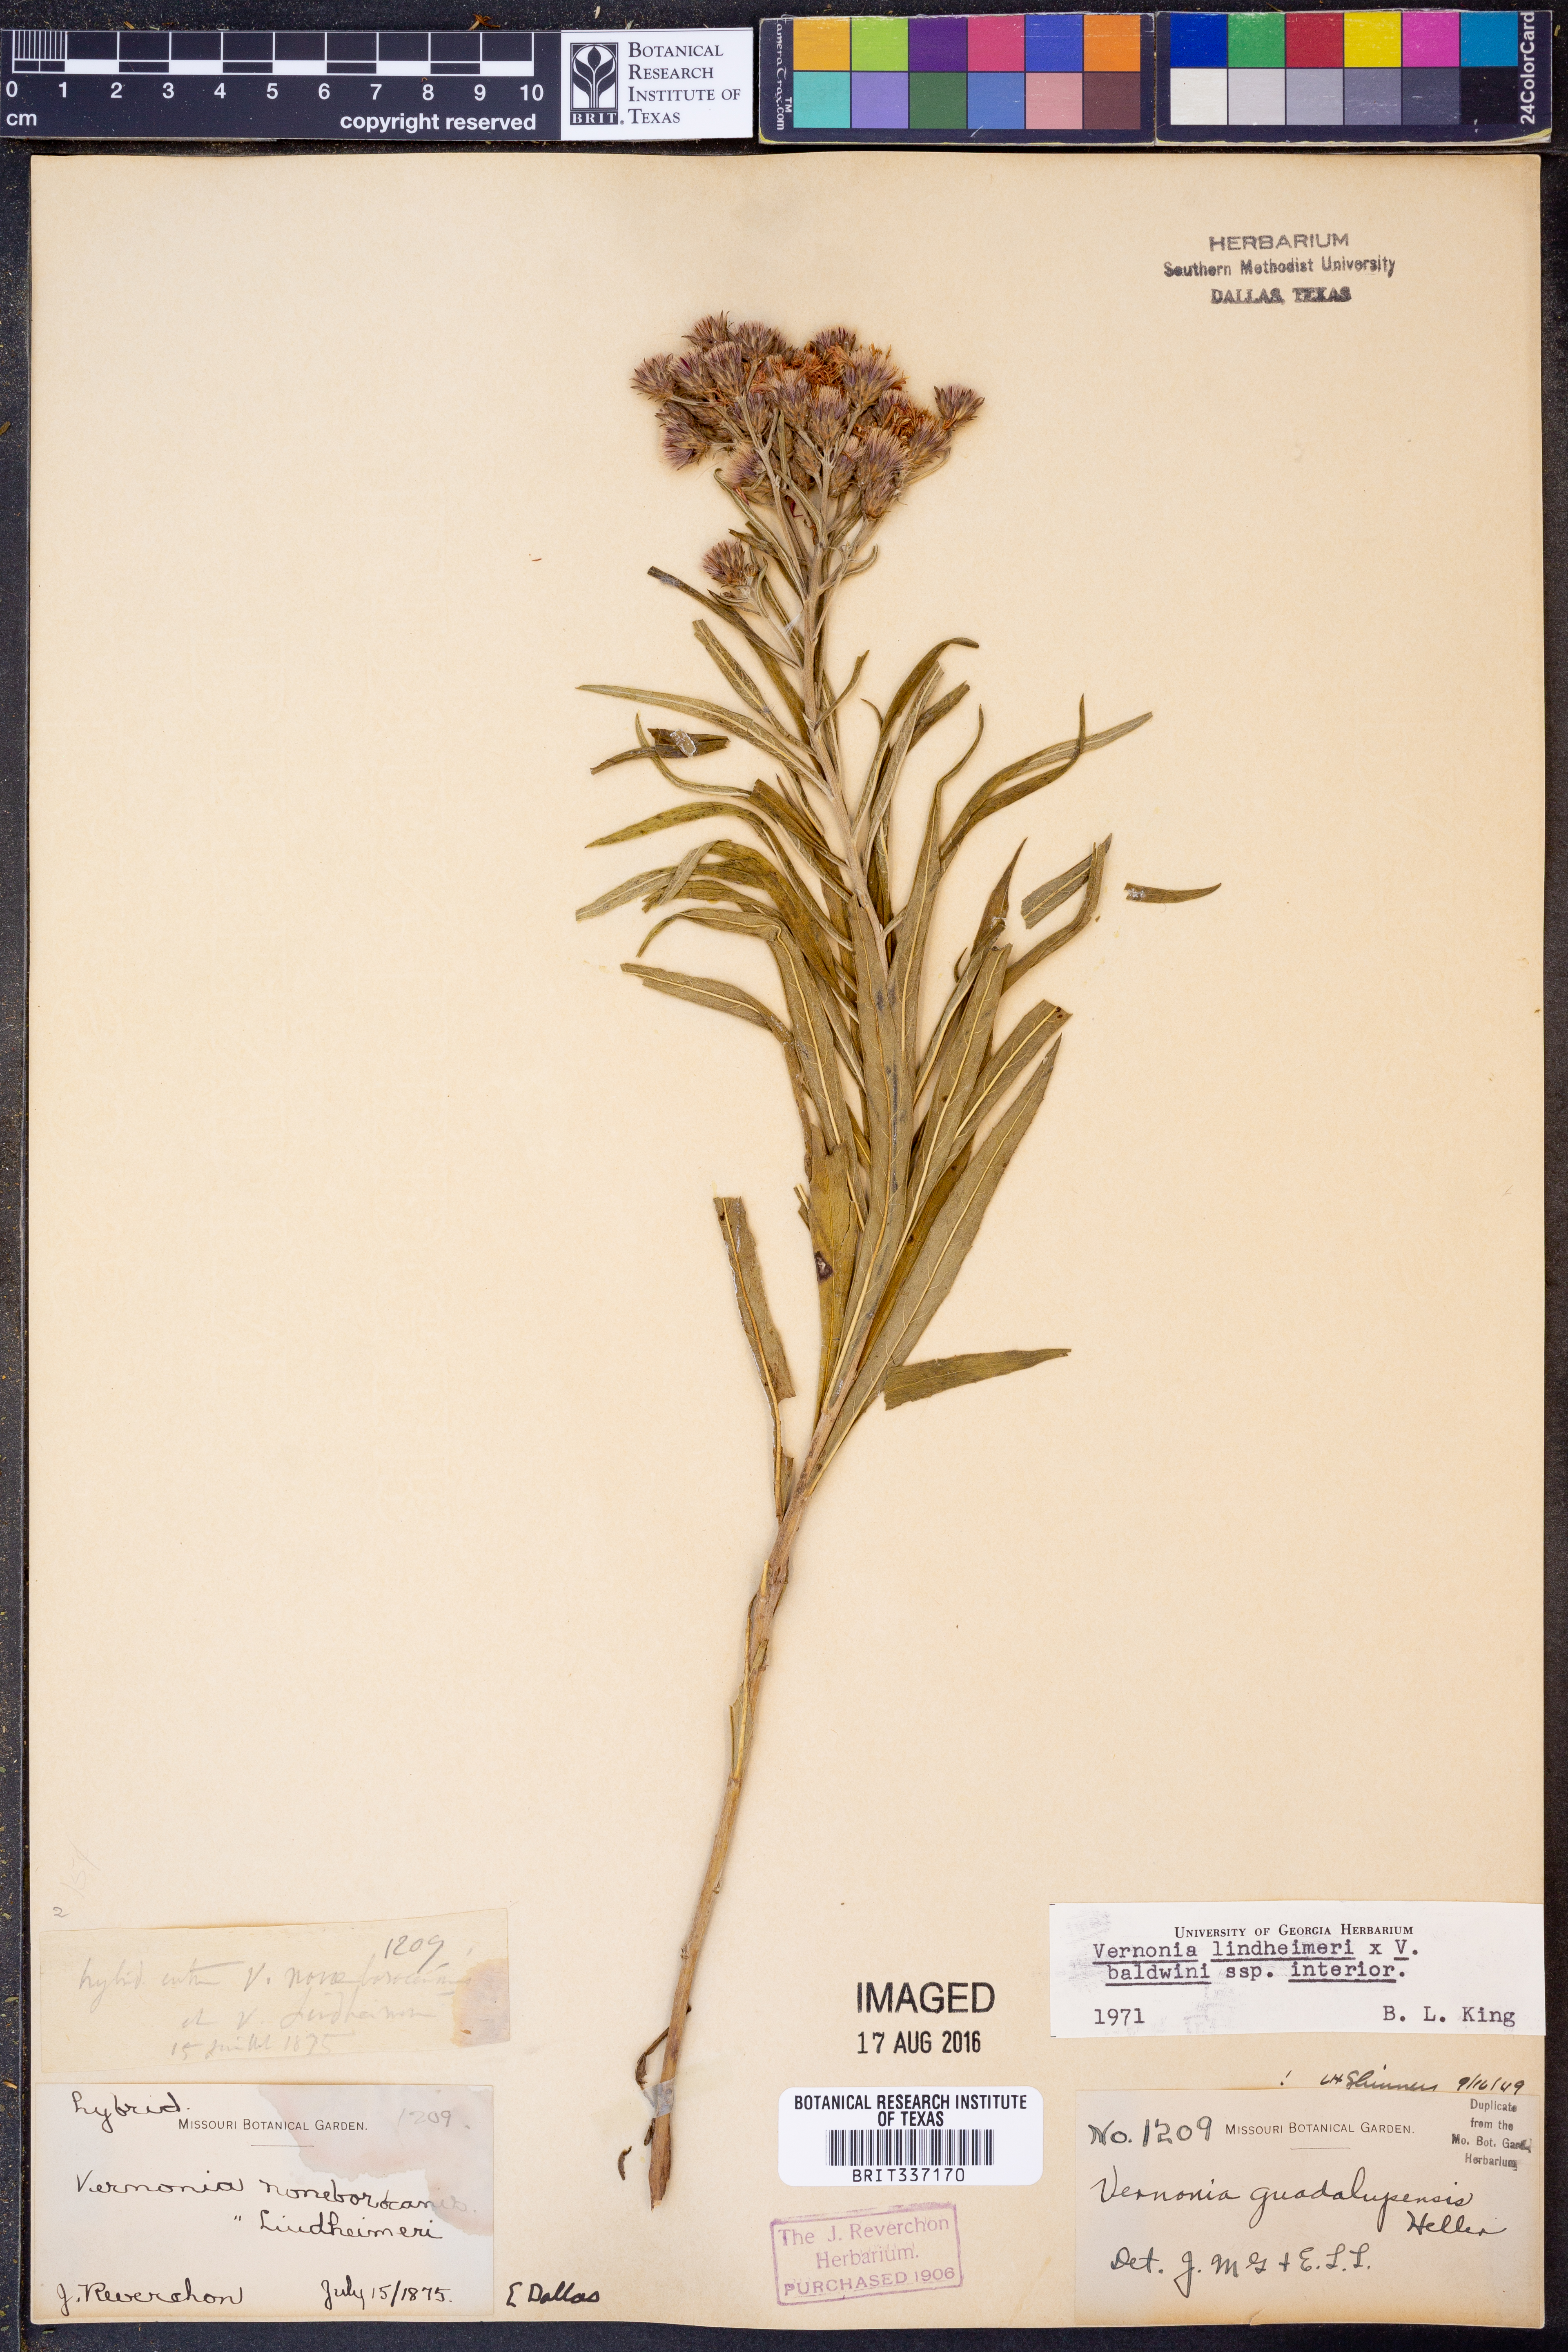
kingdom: Plantae
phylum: Tracheophyta
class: Magnoliopsida
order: Asterales
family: Asteraceae
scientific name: Asteraceae
